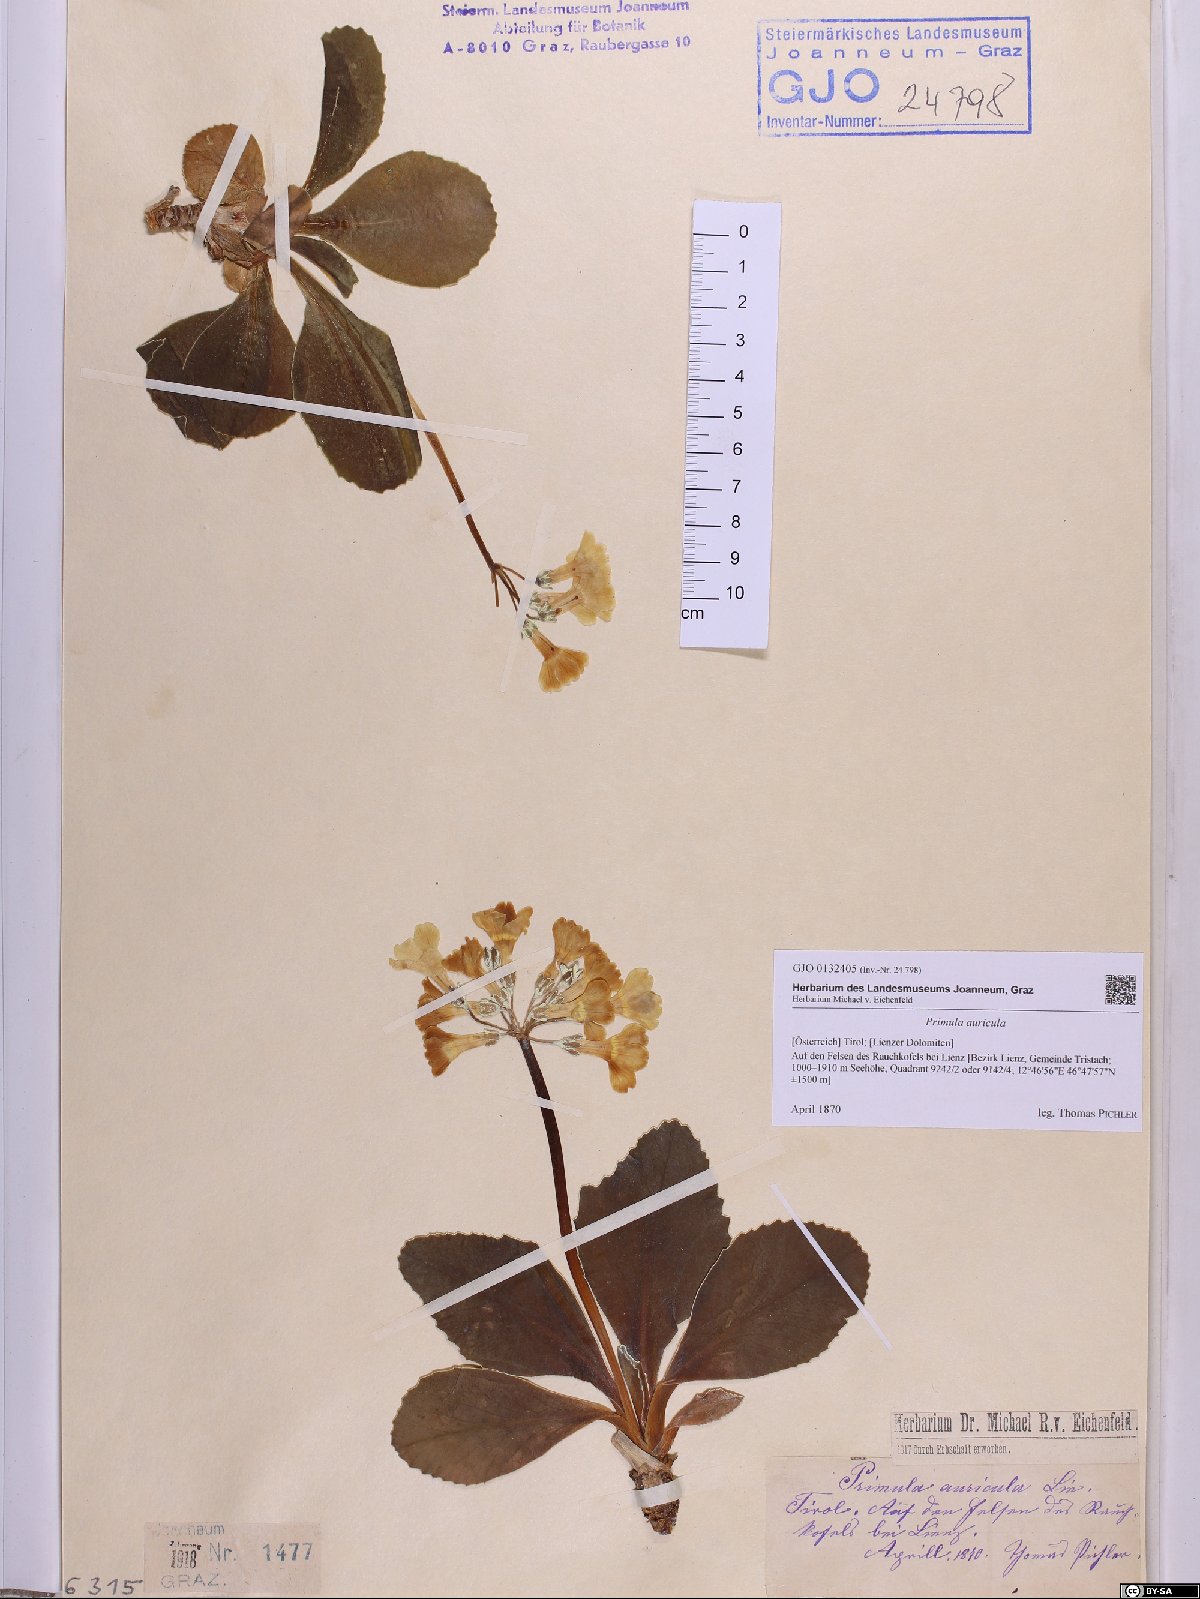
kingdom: Plantae
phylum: Tracheophyta
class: Magnoliopsida
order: Ericales
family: Primulaceae
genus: Primula
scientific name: Primula auricula
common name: Auricula
